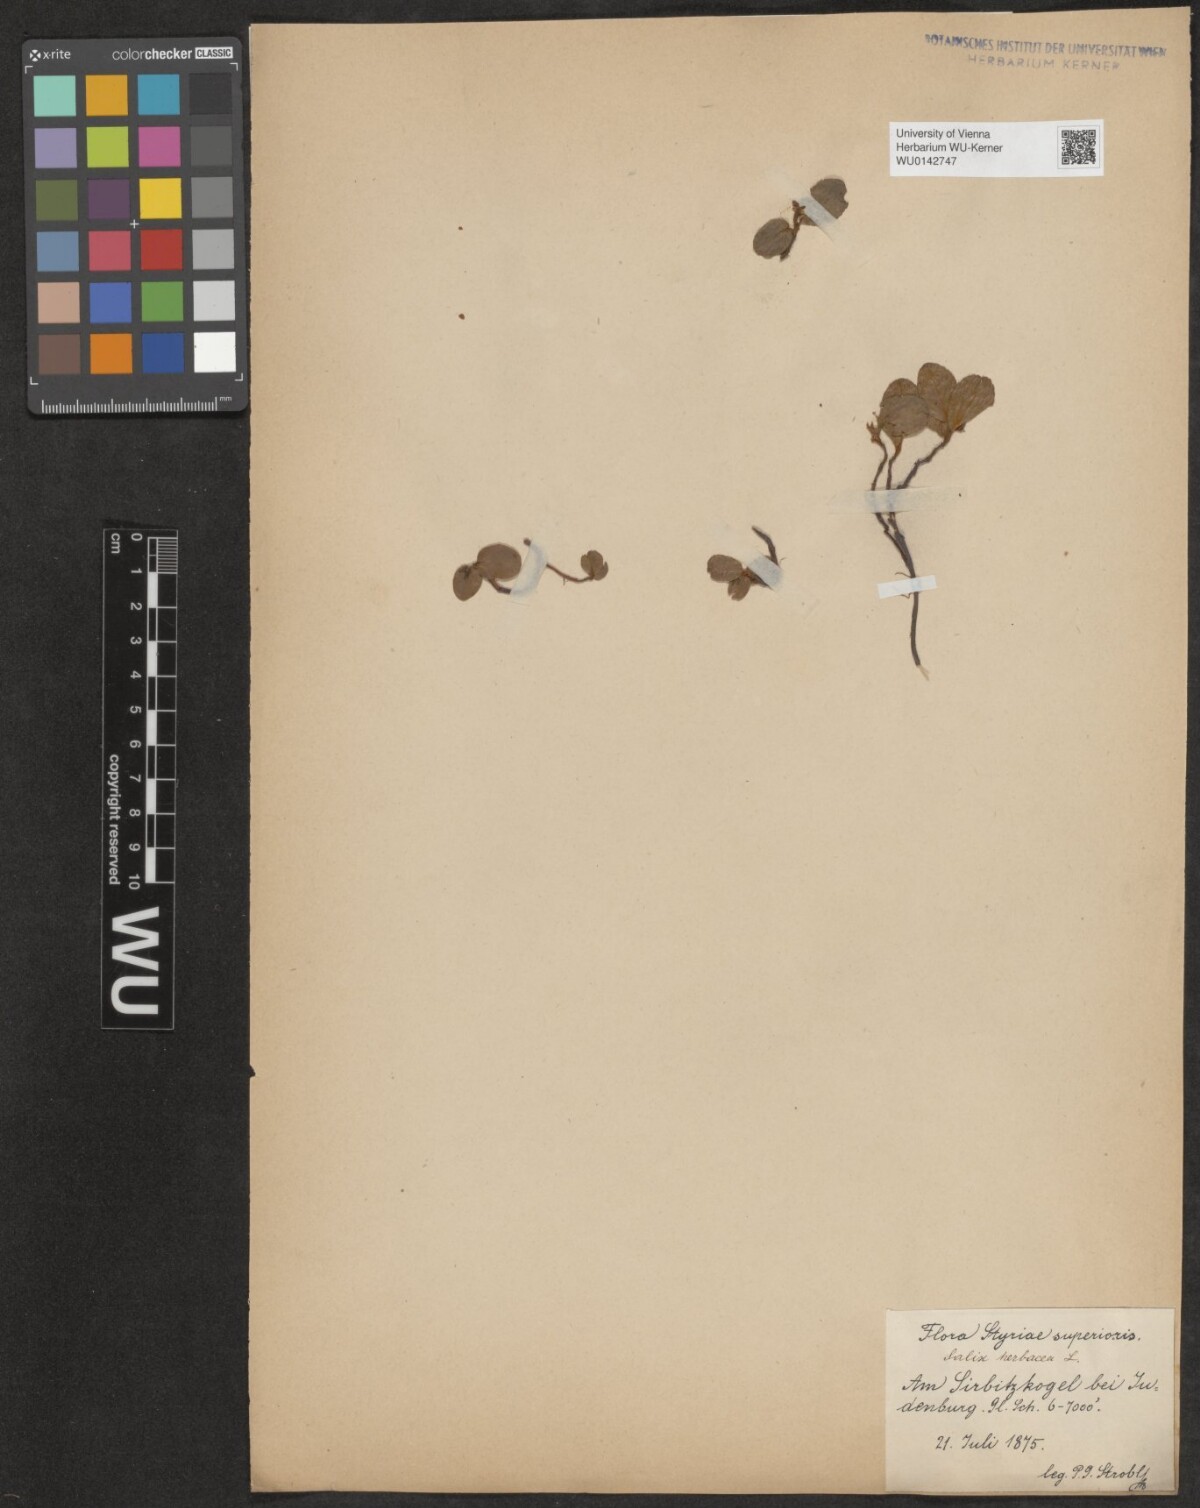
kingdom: Plantae
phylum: Tracheophyta
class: Magnoliopsida
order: Malpighiales
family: Salicaceae
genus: Salix
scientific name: Salix herbacea
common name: Dwarf willow
